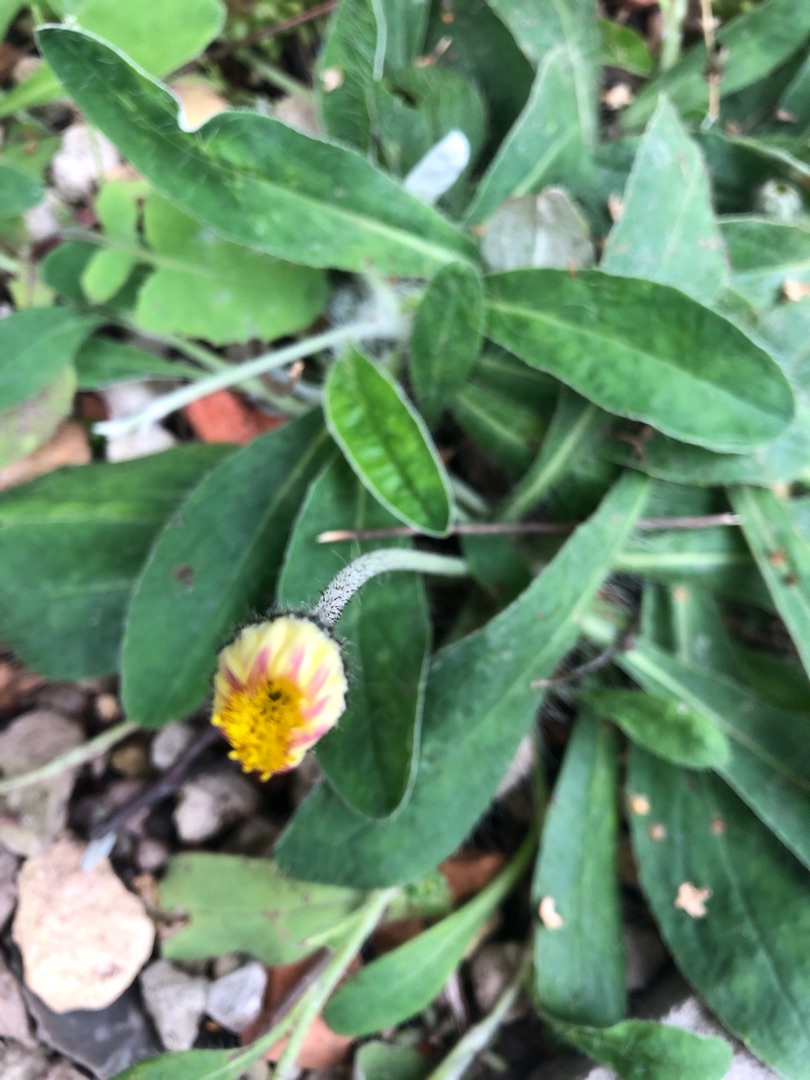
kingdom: Plantae
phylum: Tracheophyta
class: Magnoliopsida
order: Asterales
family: Asteraceae
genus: Pilosella
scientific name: Pilosella officinarum
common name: Håret høgeurt
